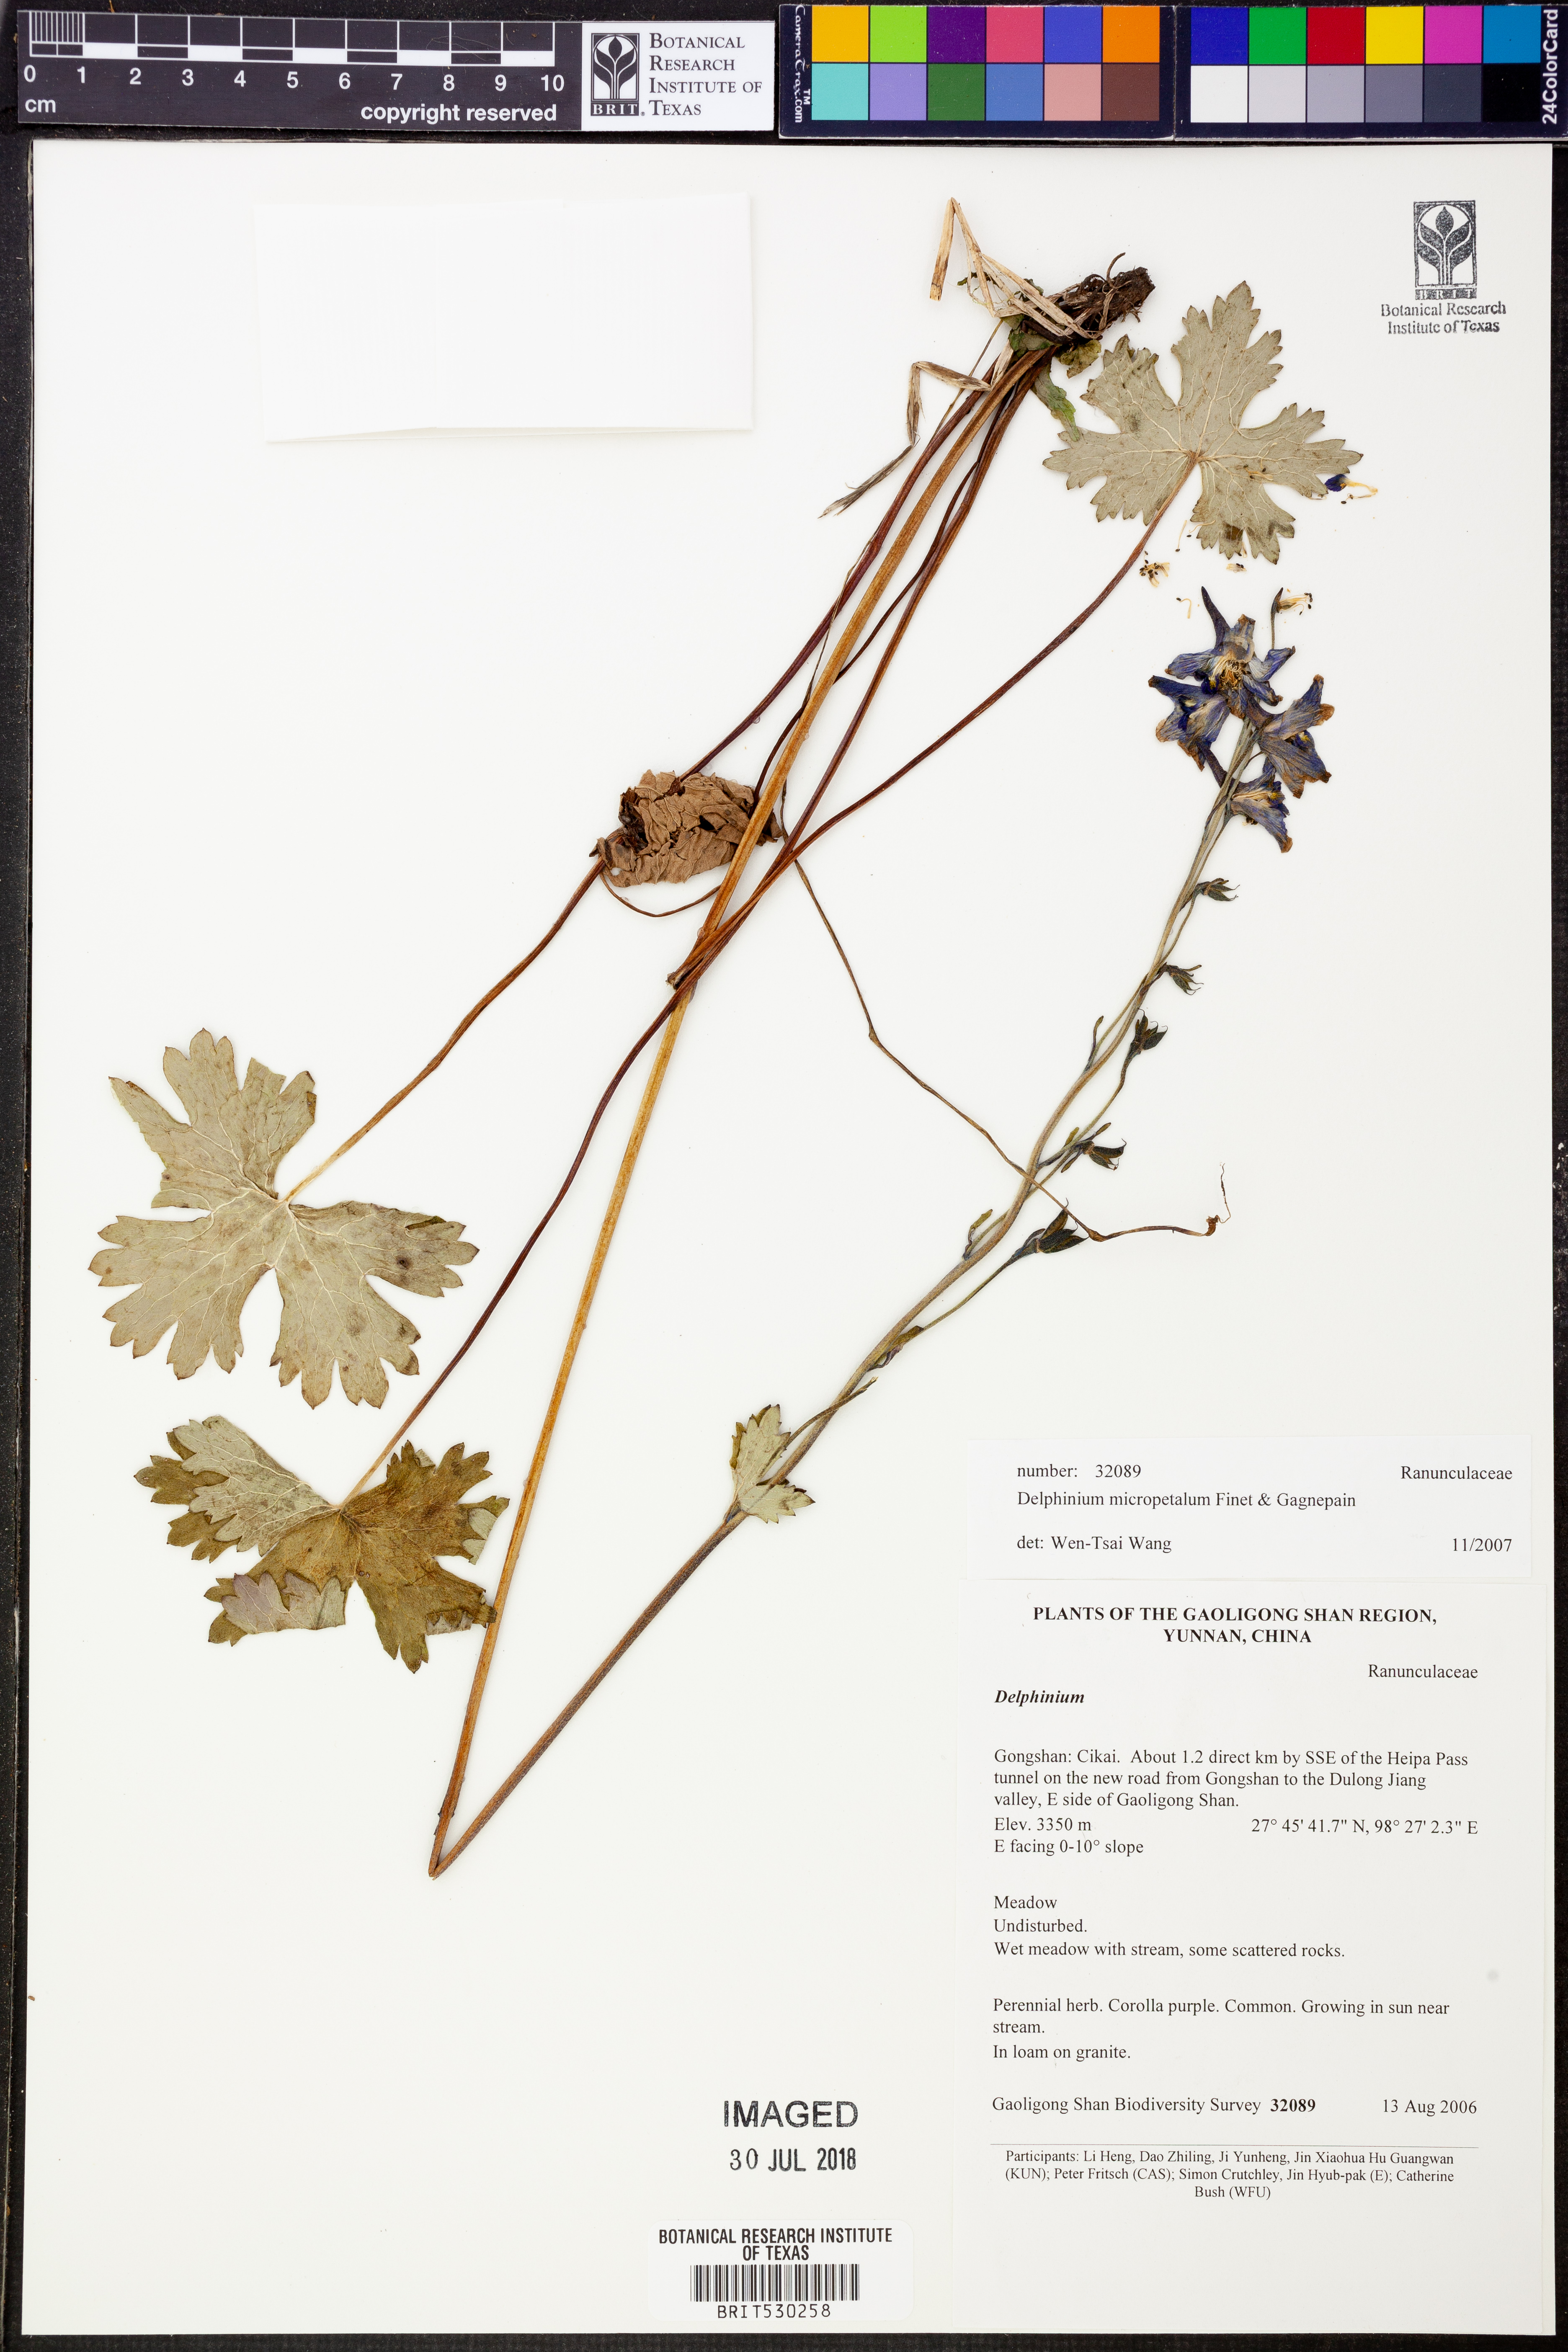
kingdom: Plantae
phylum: Tracheophyta
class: Magnoliopsida
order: Ranunculales
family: Ranunculaceae
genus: Delphinium
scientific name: Delphinium micropetalum
